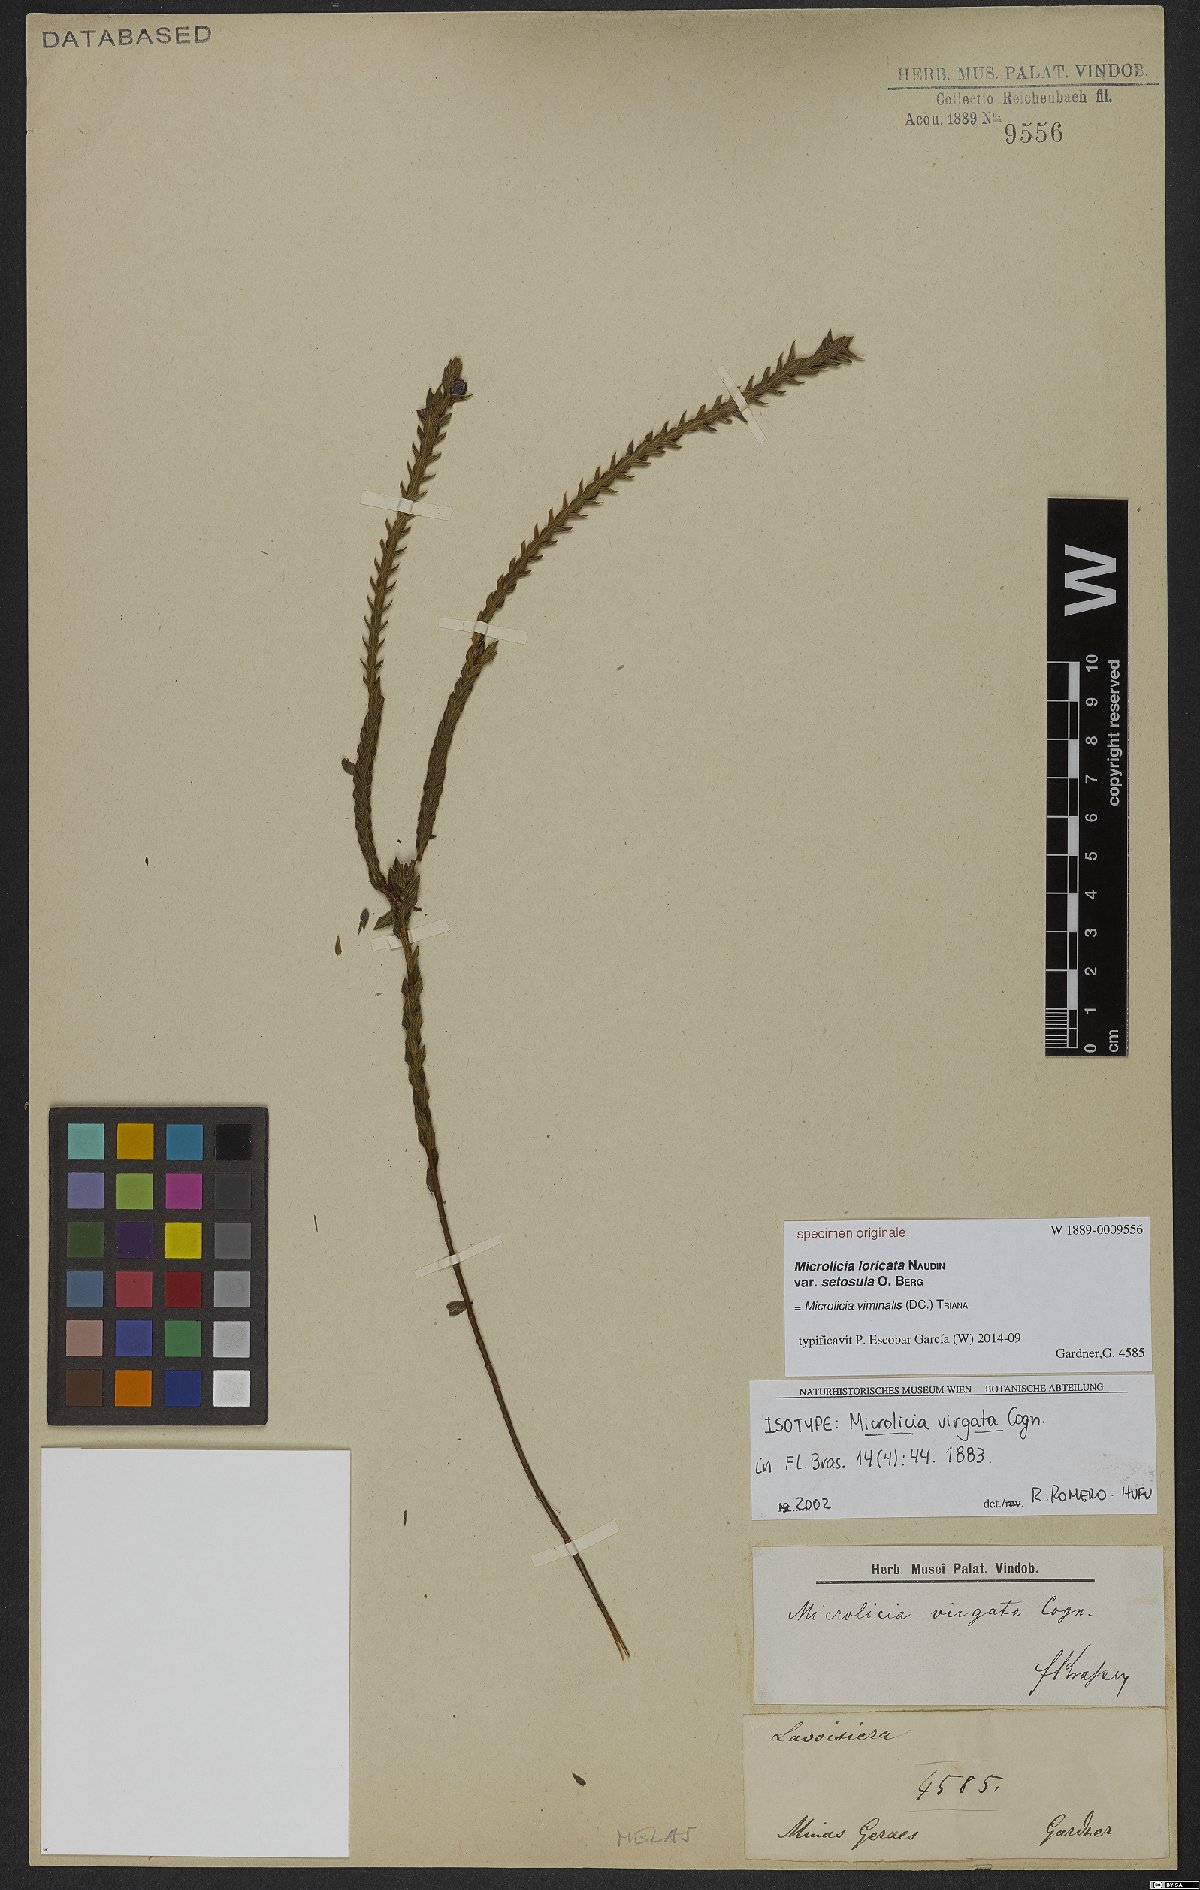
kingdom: Plantae
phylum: Tracheophyta
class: Magnoliopsida
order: Myrtales
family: Melastomataceae
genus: Microlicia
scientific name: Microlicia viminalis
